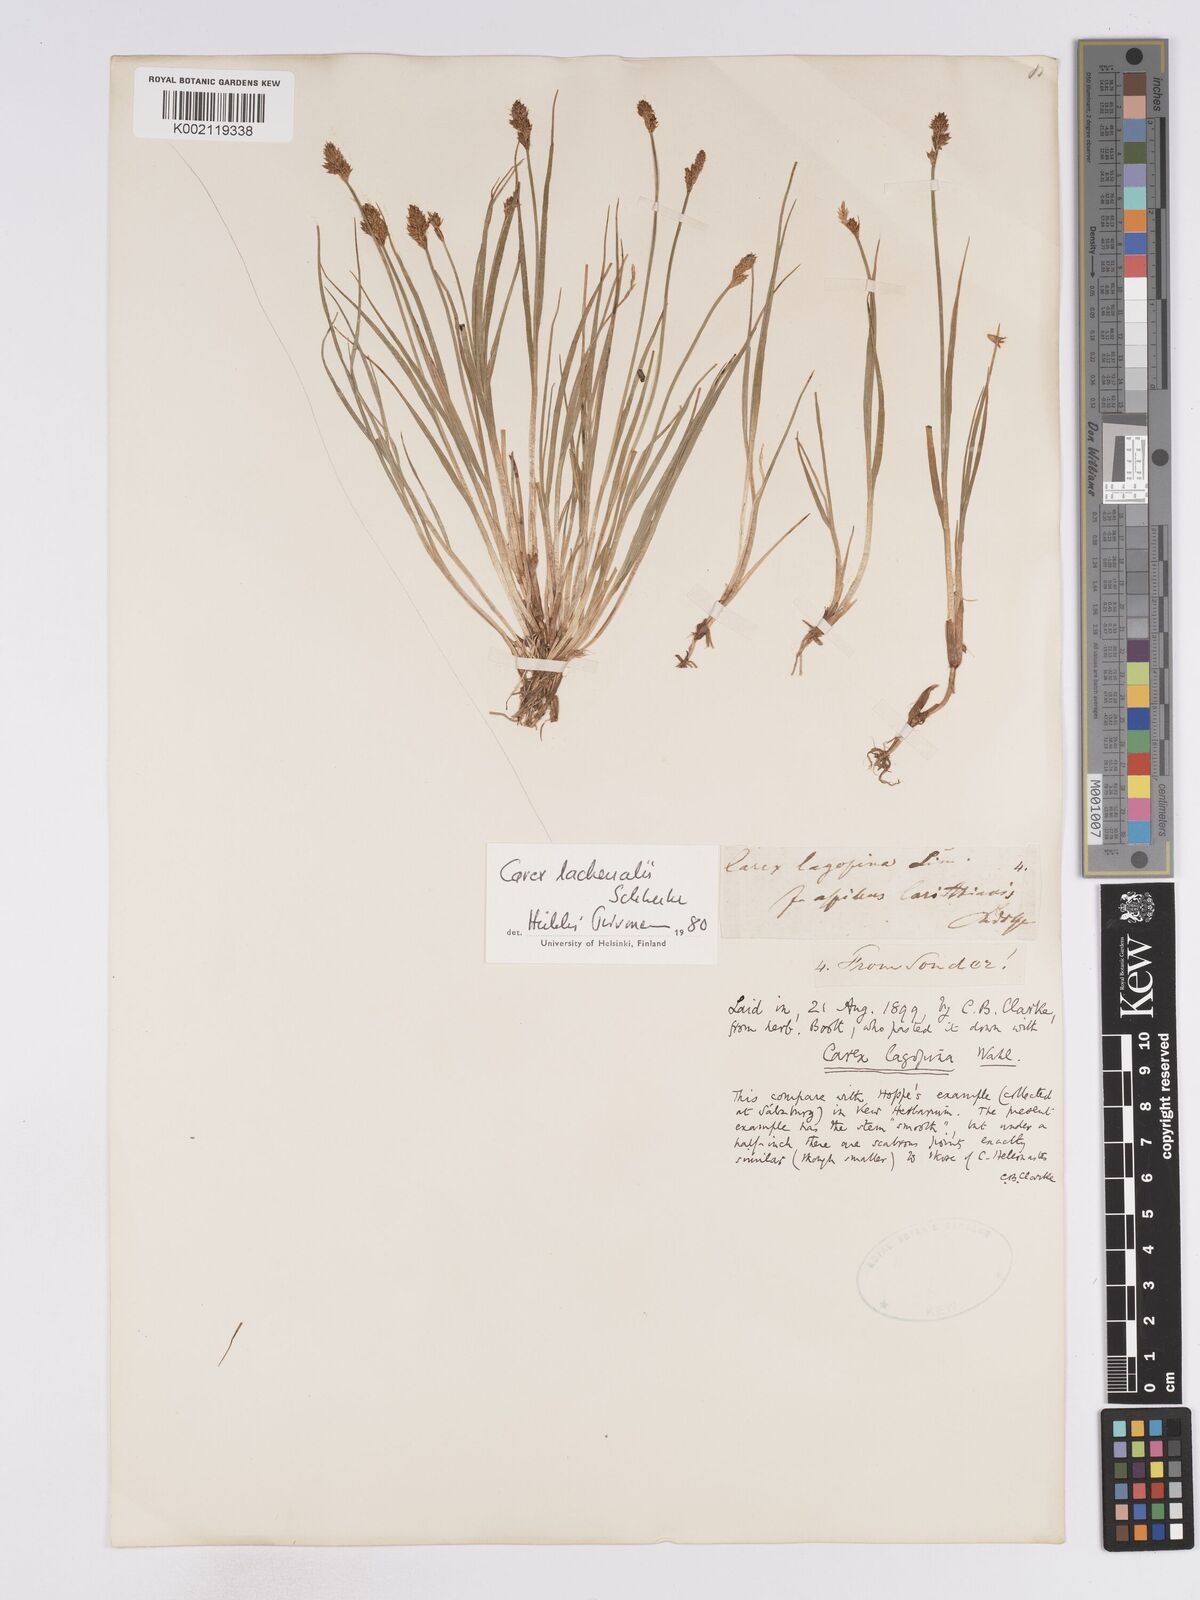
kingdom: Plantae
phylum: Tracheophyta
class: Liliopsida
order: Poales
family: Cyperaceae
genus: Carex
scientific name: Carex lachenalii
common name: Hare's-foot sedge
